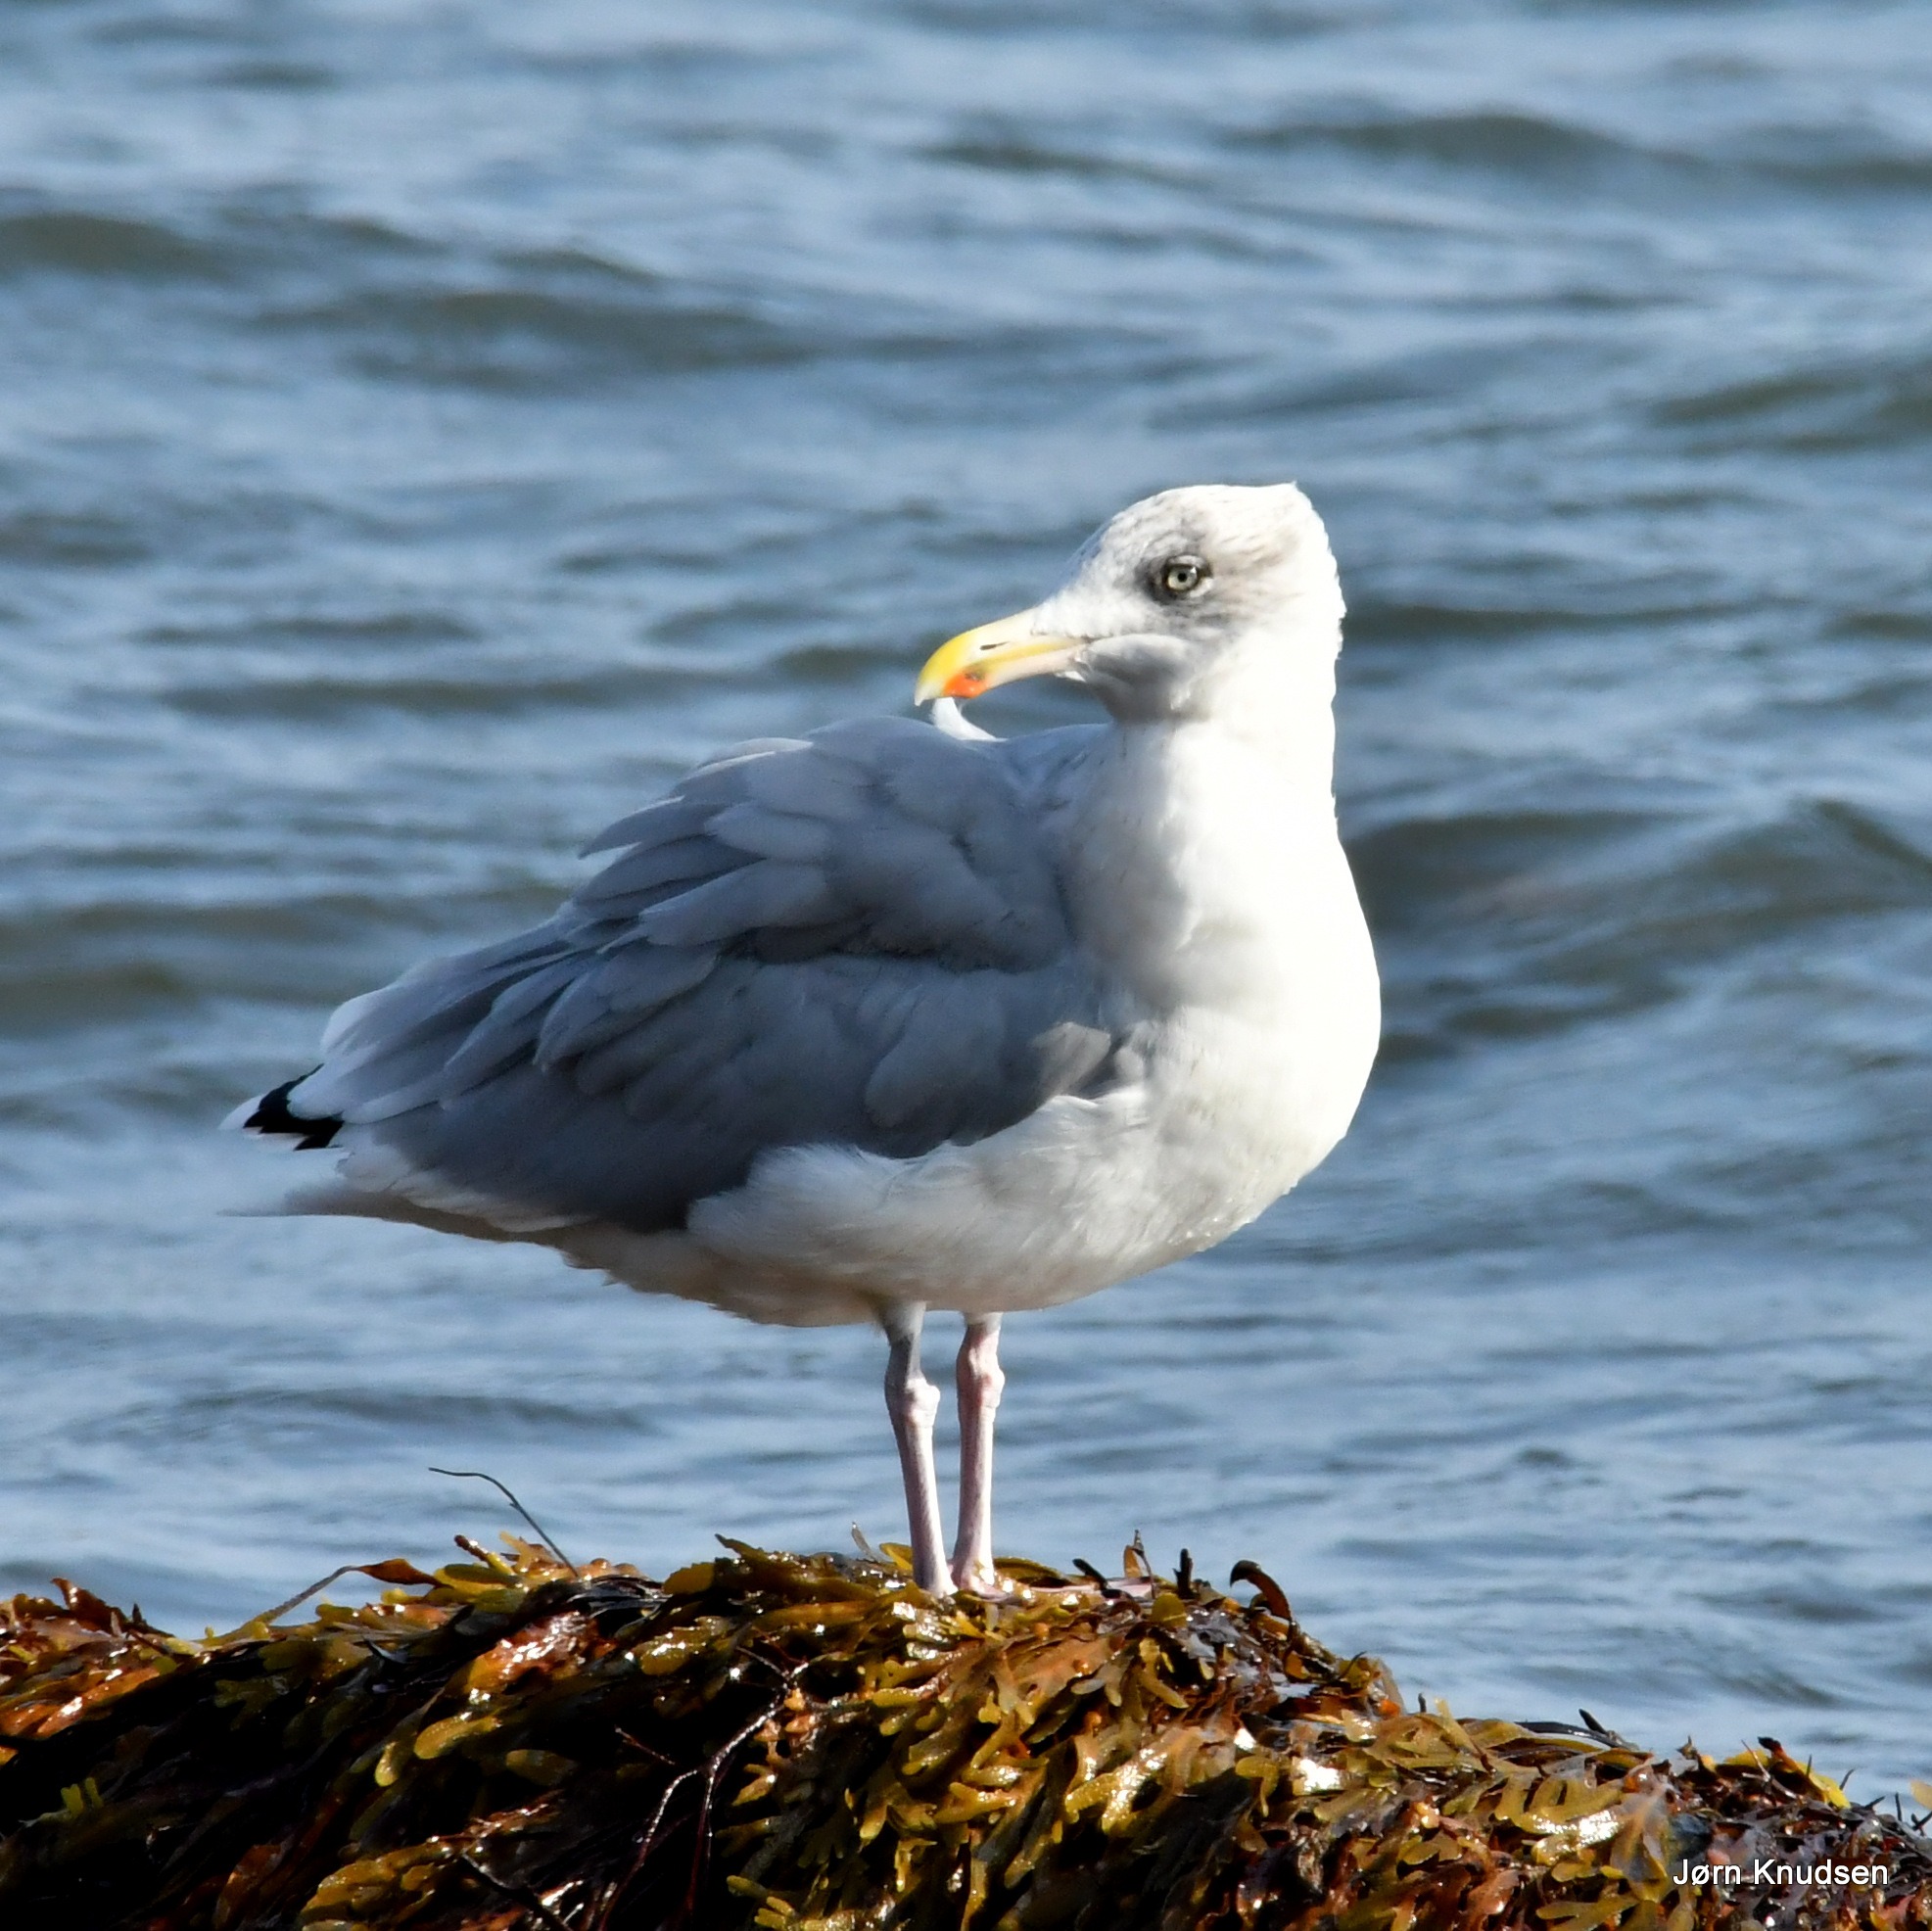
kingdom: Animalia
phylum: Chordata
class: Aves
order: Charadriiformes
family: Laridae
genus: Larus
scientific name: Larus argentatus
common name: Sølvmåge
